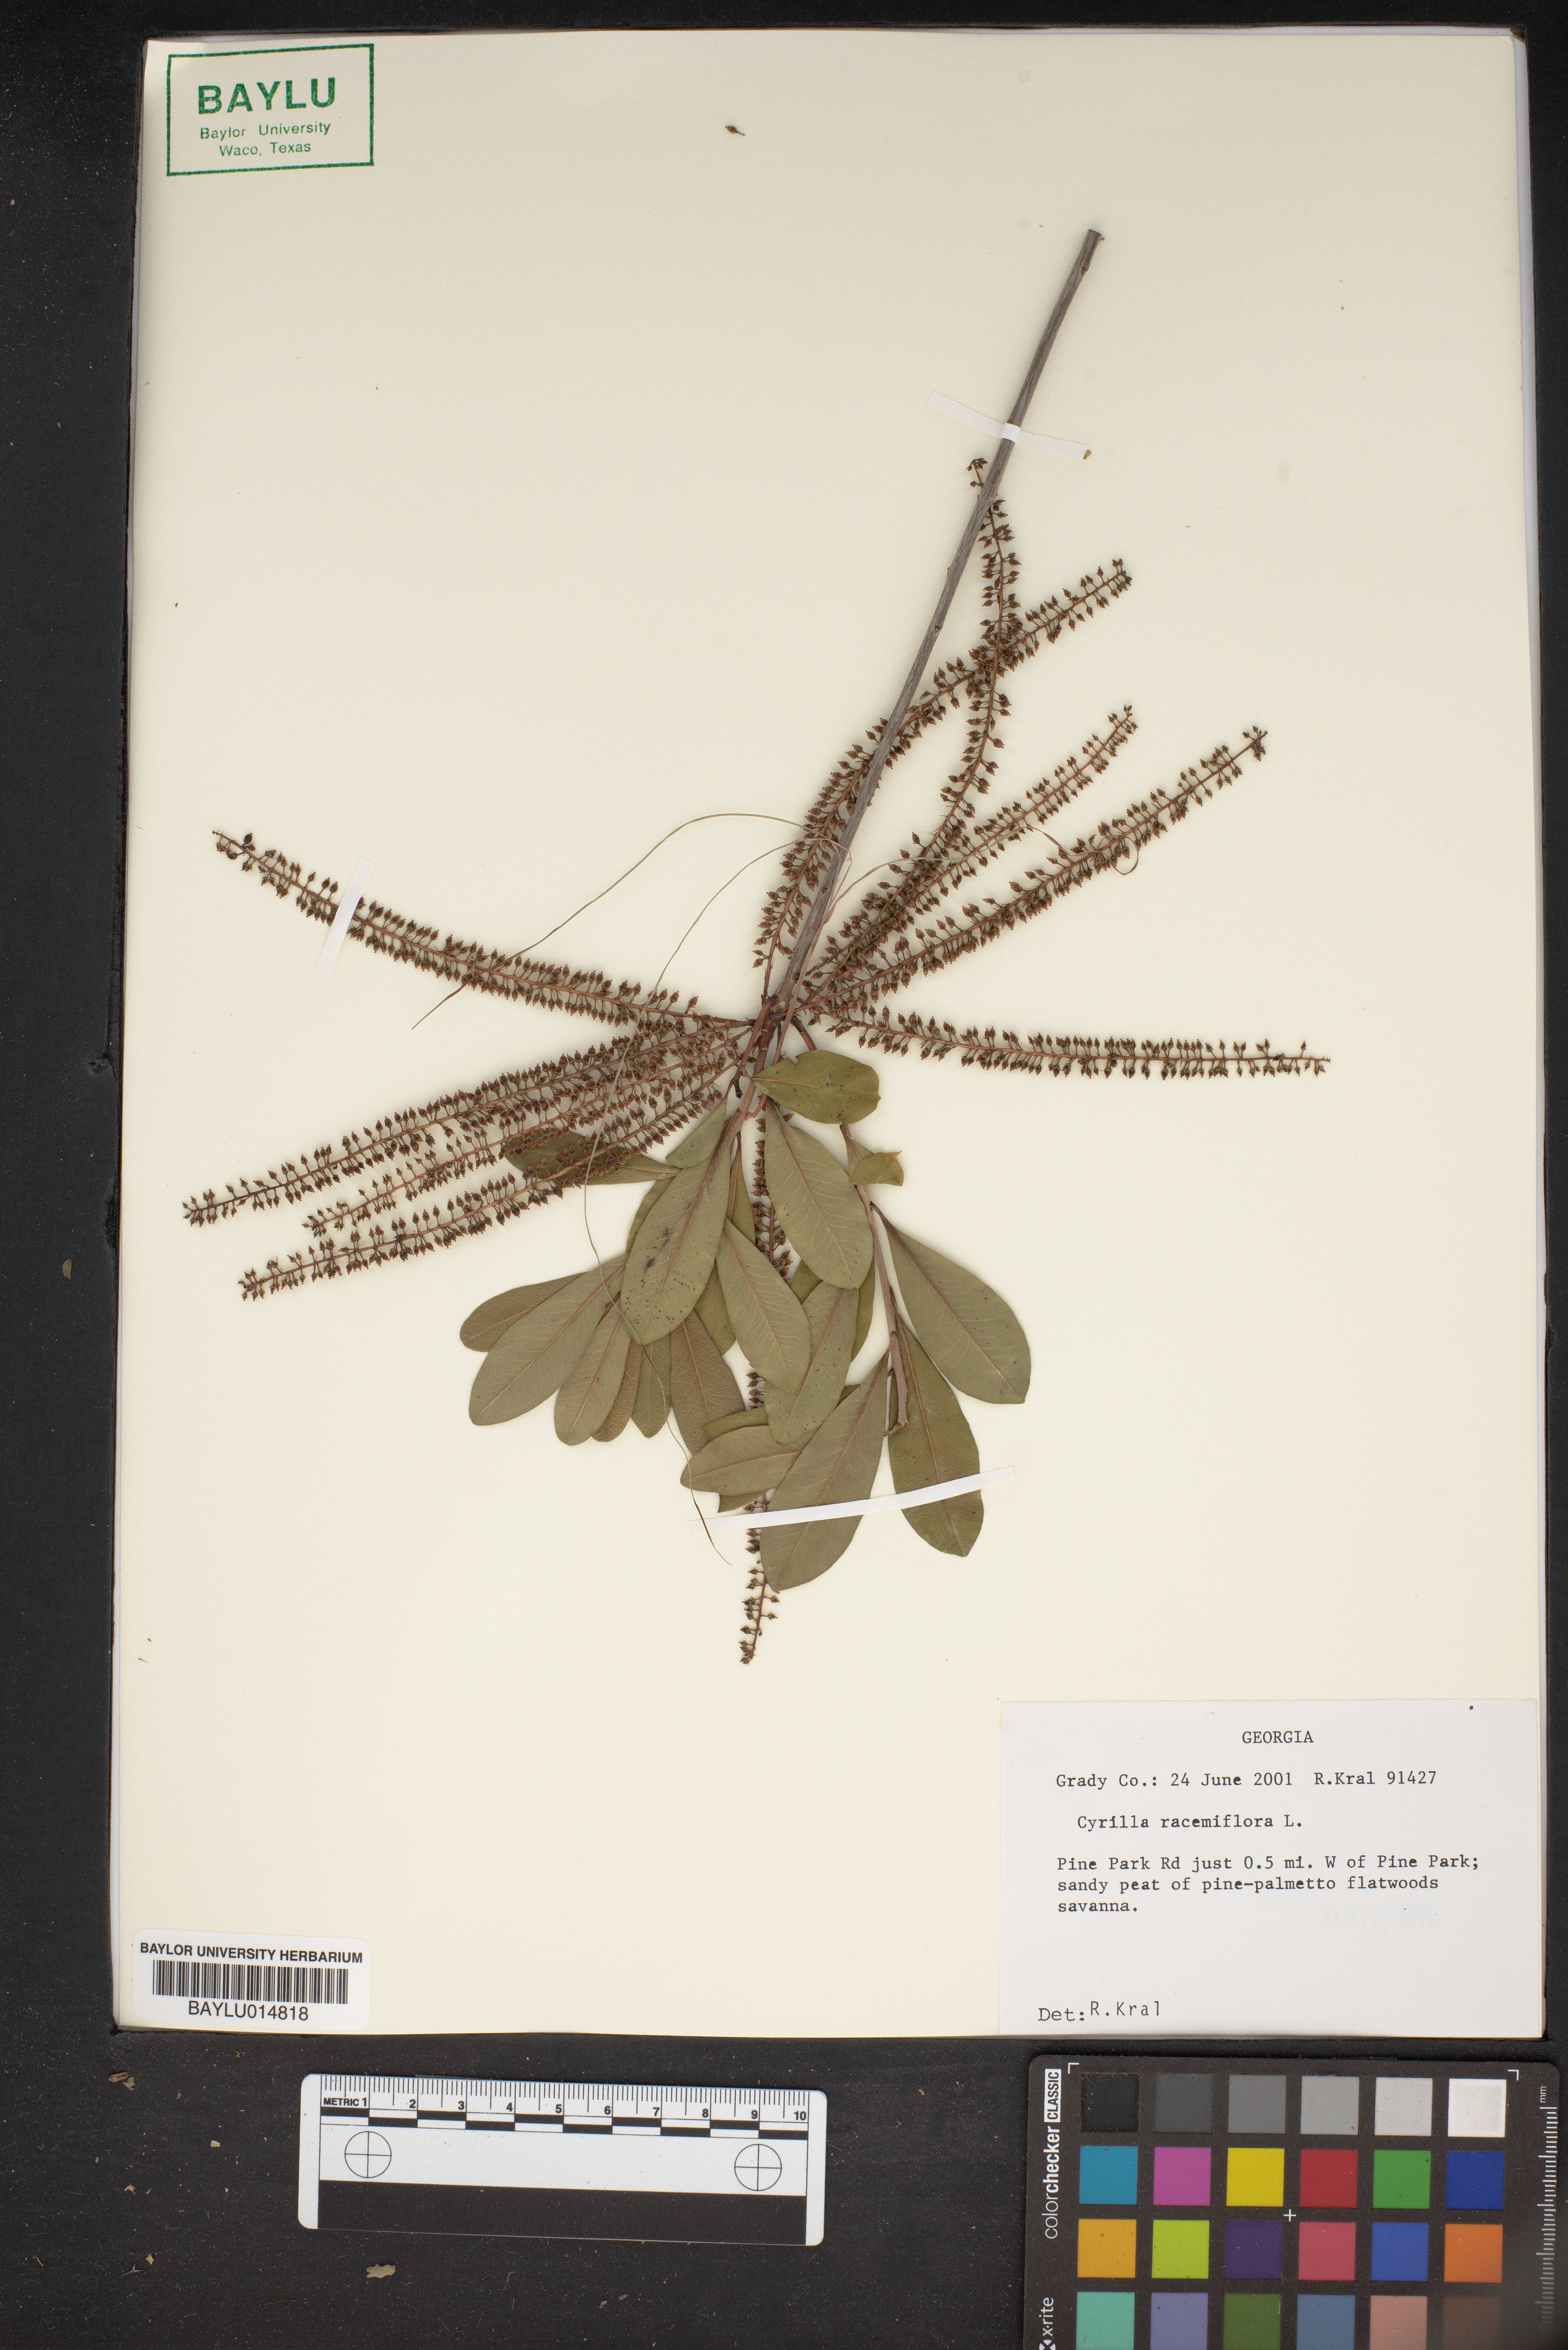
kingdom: Plantae
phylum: Tracheophyta
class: Magnoliopsida
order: Ericales
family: Cyrillaceae
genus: Cyrilla
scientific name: Cyrilla racemiflora
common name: Black titi
